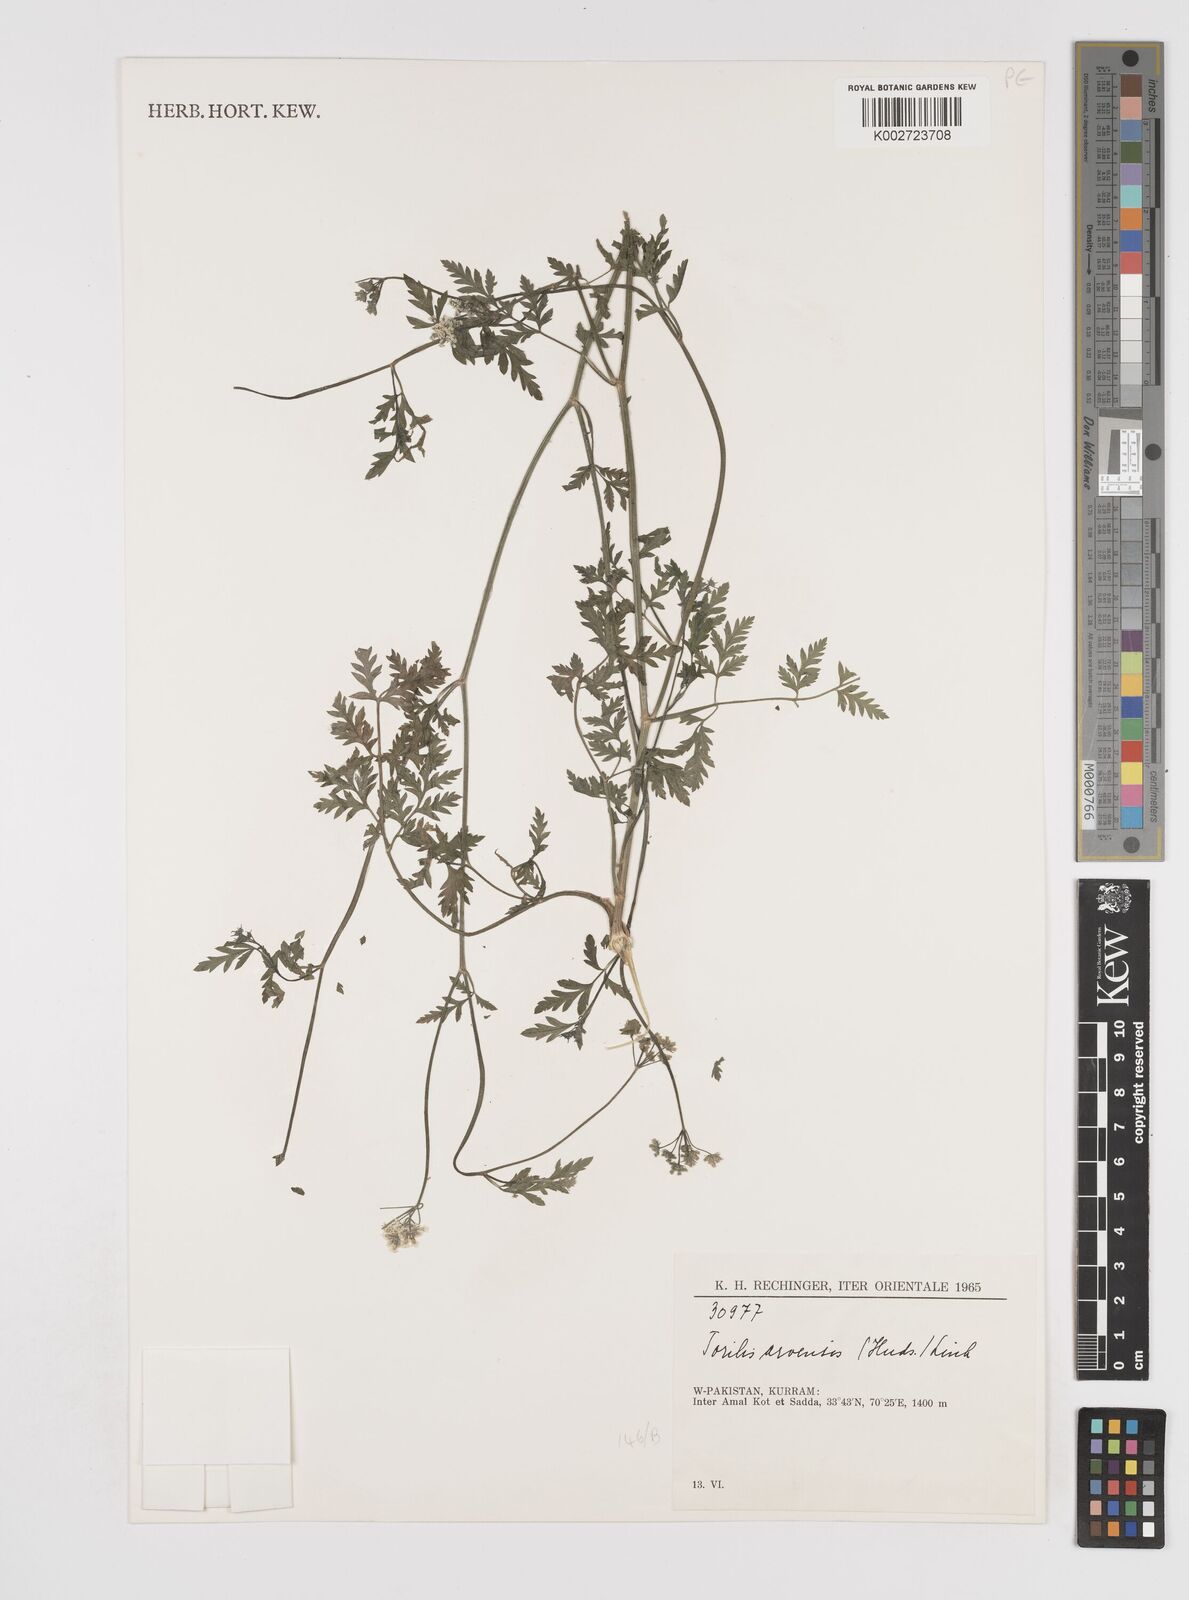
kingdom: Plantae
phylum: Tracheophyta
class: Magnoliopsida
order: Apiales
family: Apiaceae
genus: Torilis
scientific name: Torilis arvensis
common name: Spreading hedge-parsley
